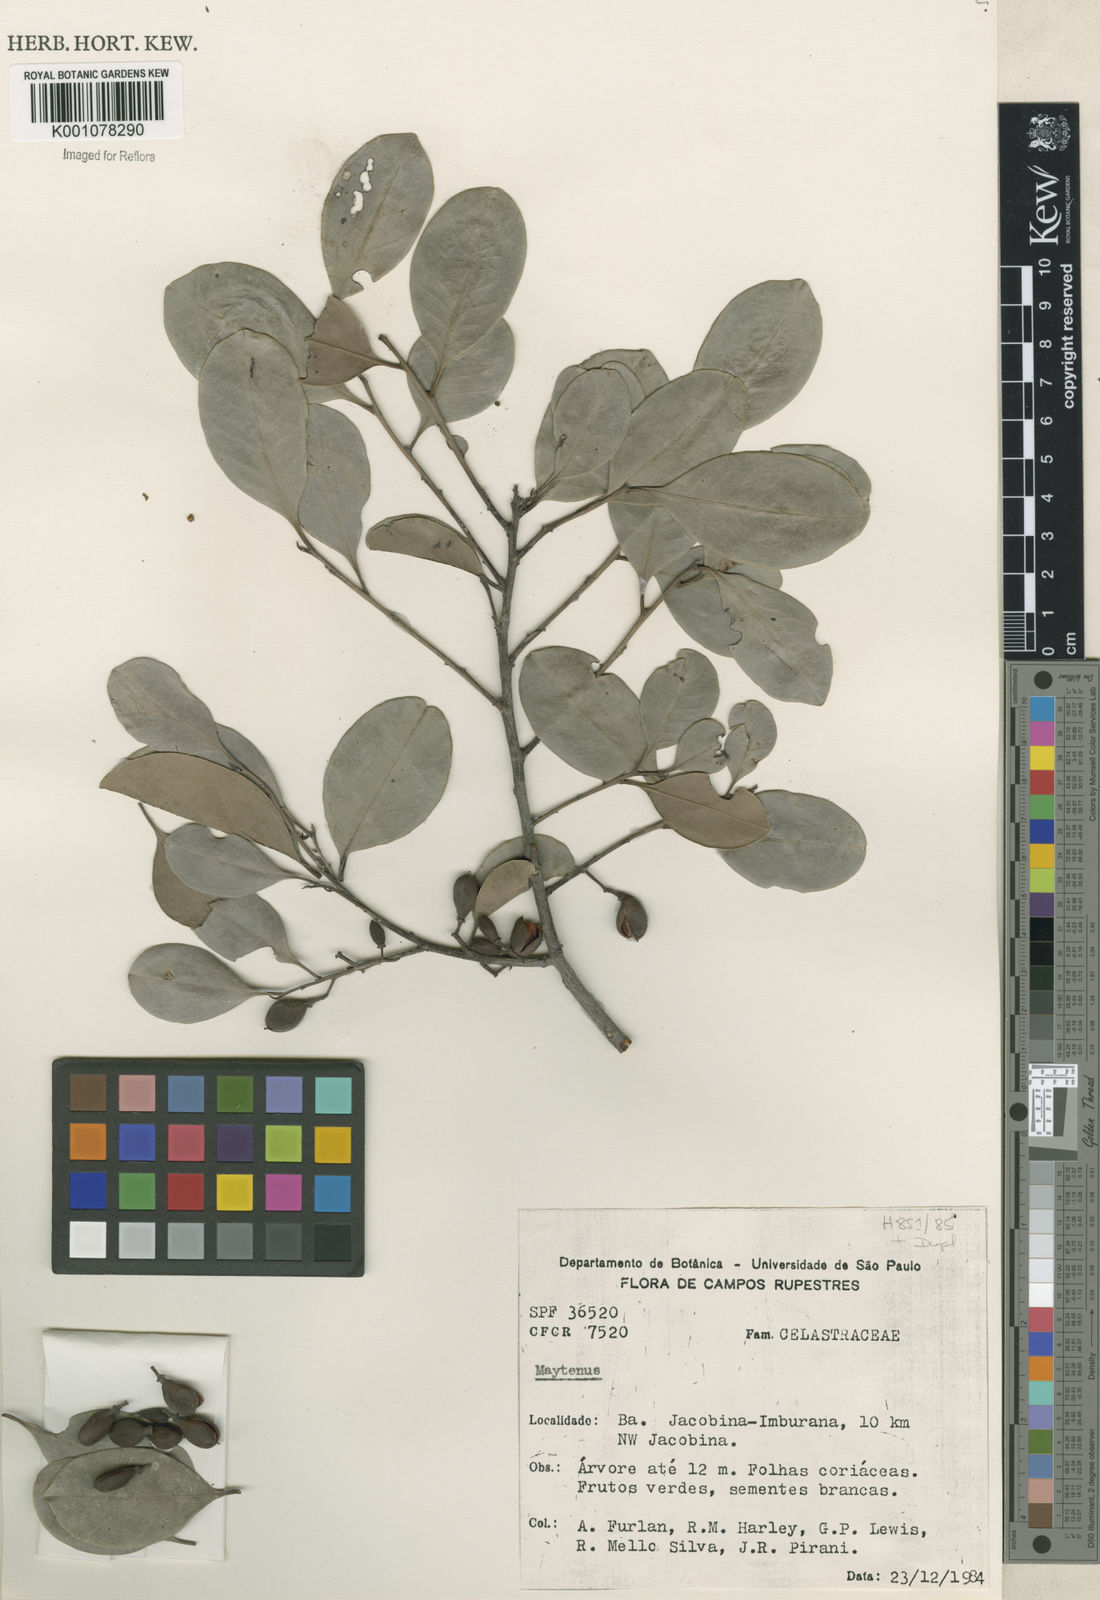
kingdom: Plantae
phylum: Tracheophyta
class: Magnoliopsida
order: Celastrales
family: Celastraceae
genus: Maytenus
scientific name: Maytenus
